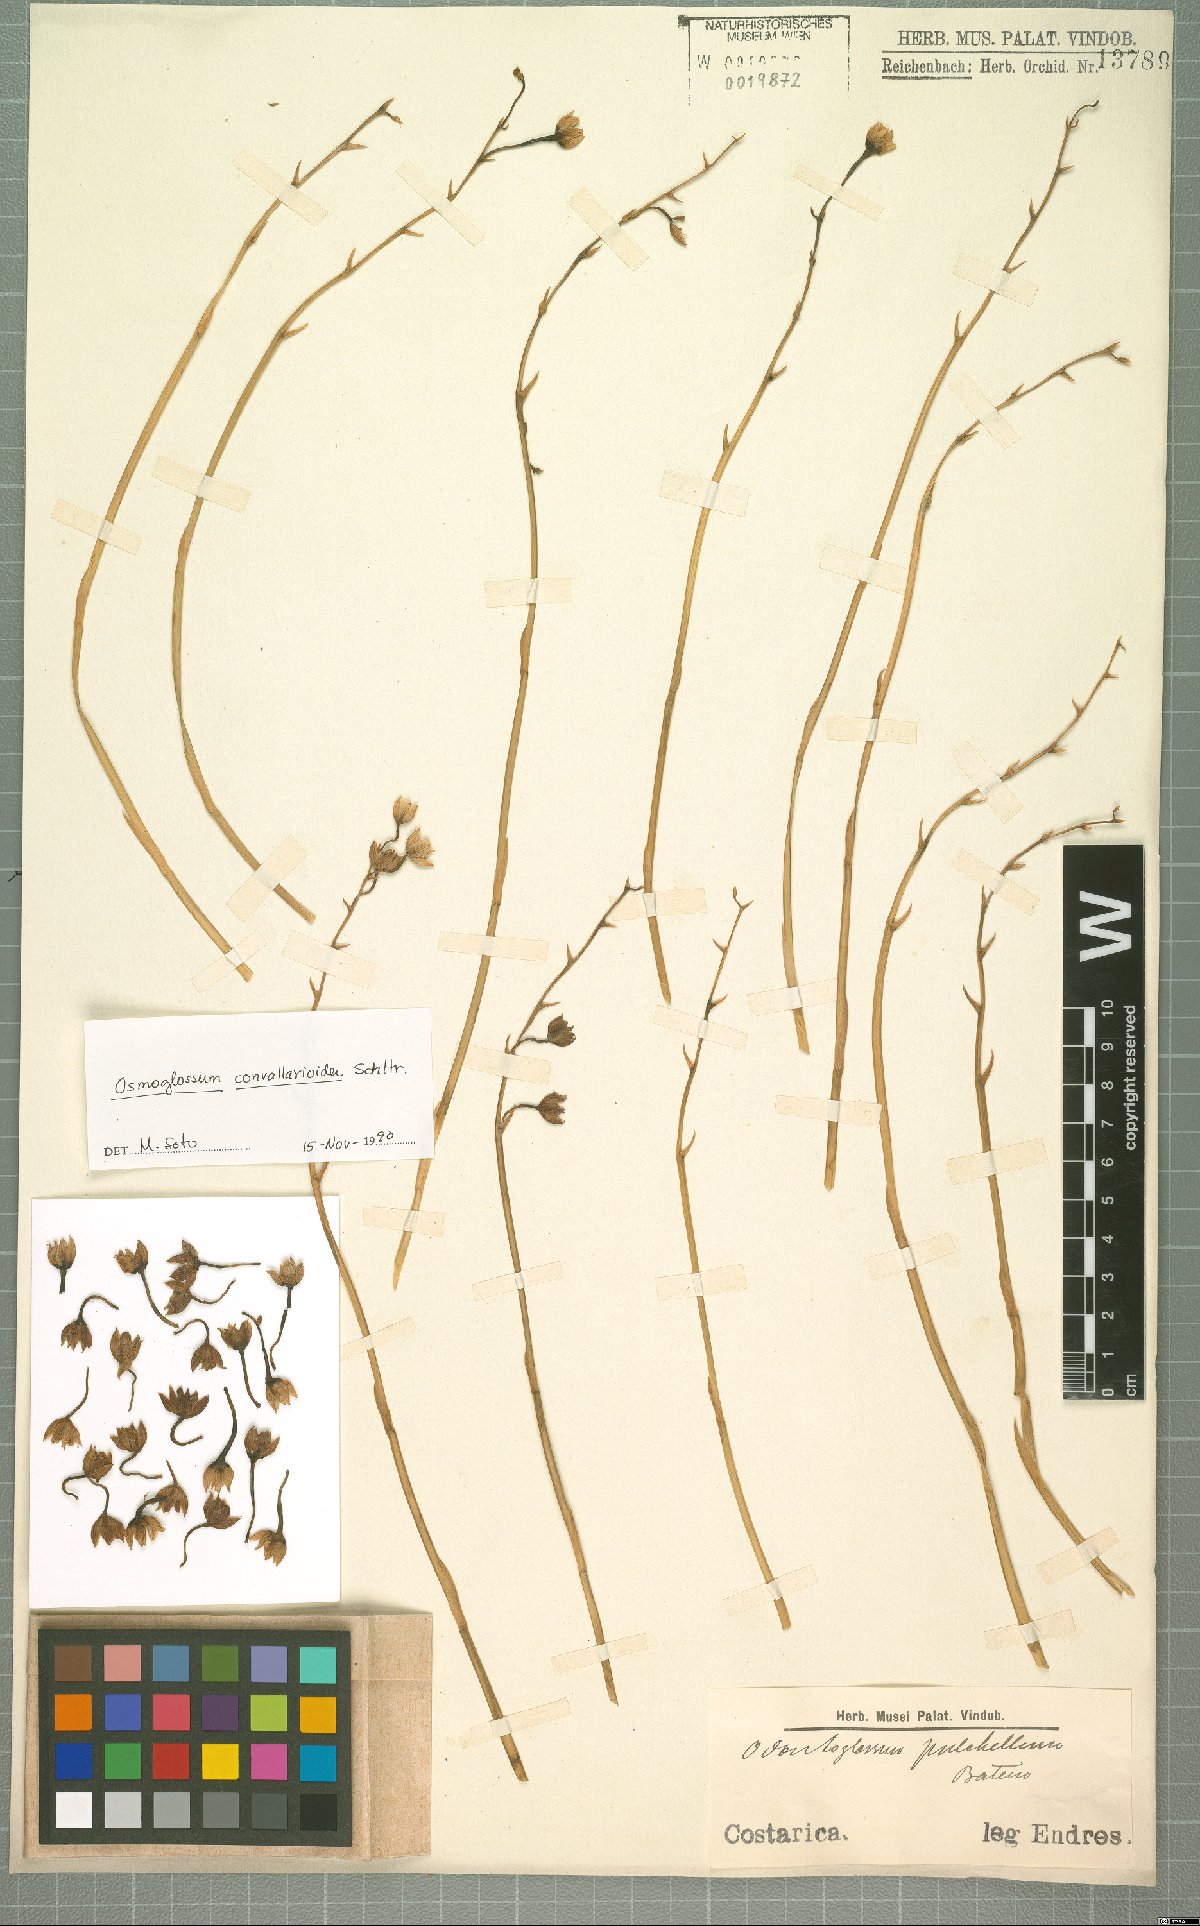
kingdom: Plantae
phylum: Tracheophyta
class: Liliopsida
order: Asparagales
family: Orchidaceae
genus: Cuitlauzina
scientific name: Cuitlauzina convallarioides
